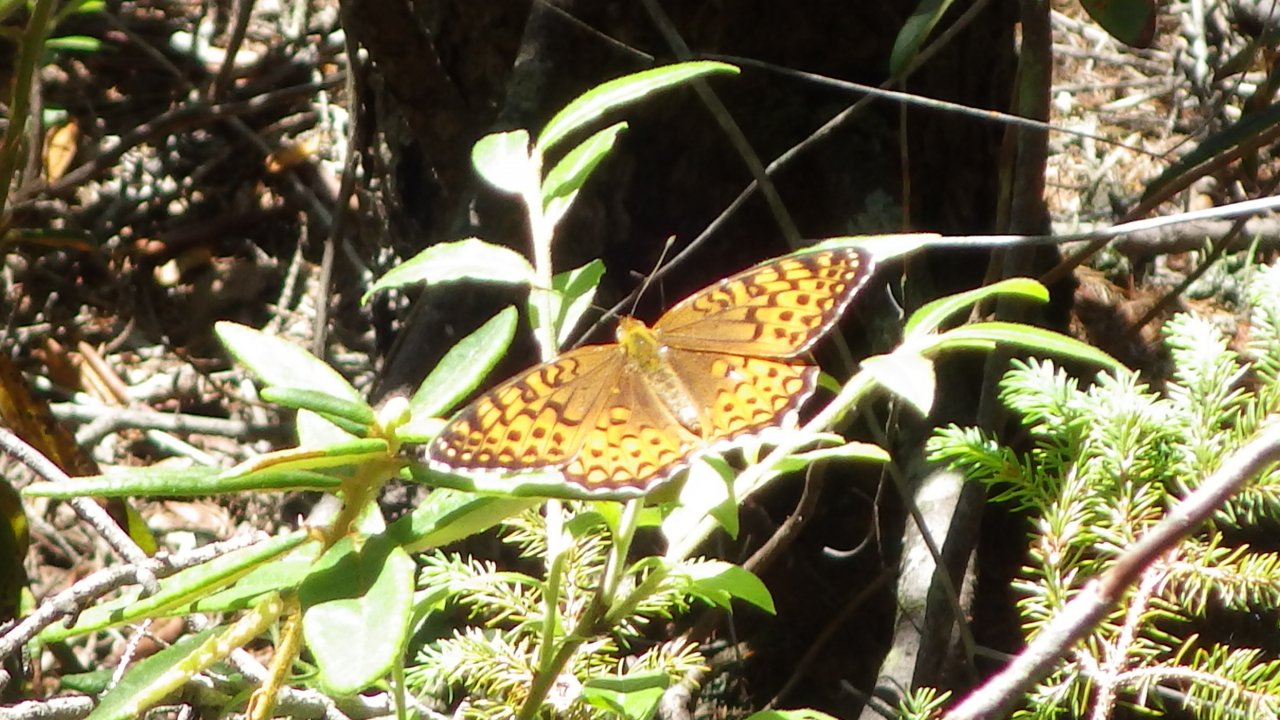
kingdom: Animalia
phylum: Arthropoda
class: Insecta
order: Lepidoptera
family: Nymphalidae
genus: Speyeria
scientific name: Speyeria atlantis
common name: Atlantis Fritillary
